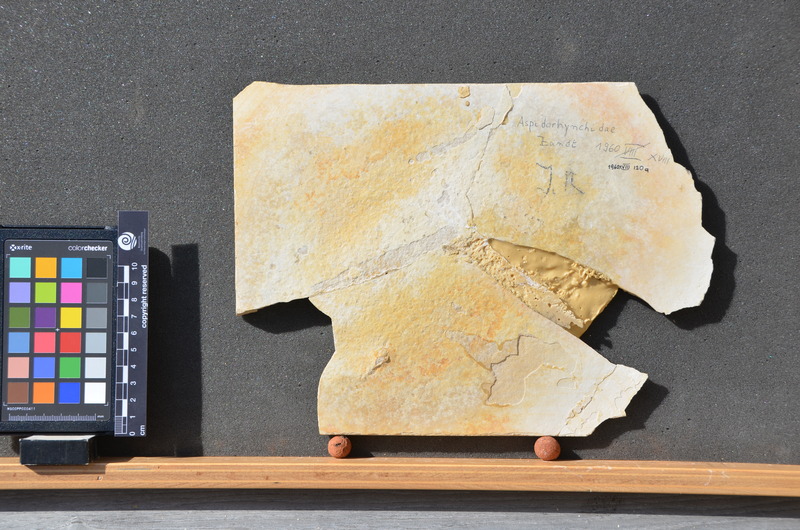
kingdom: Animalia
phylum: Chordata
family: Aspidorhynchidae
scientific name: Aspidorhynchidae
